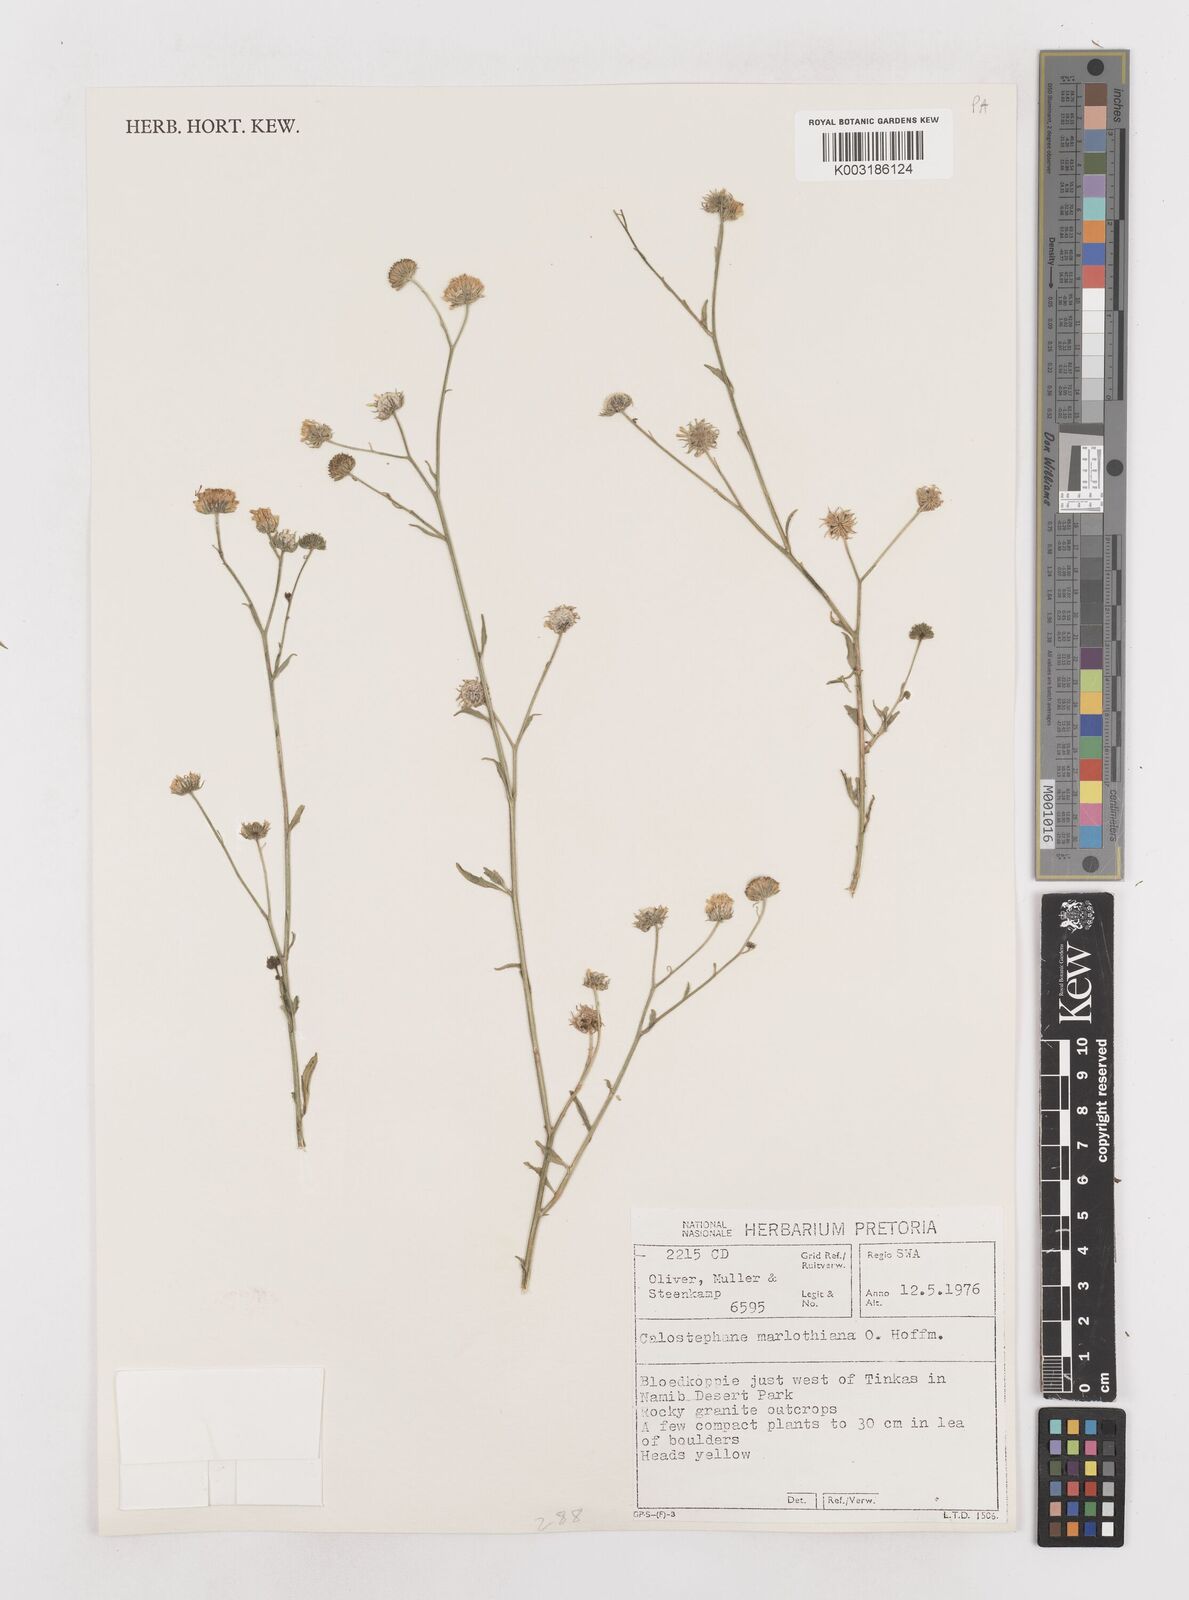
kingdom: Plantae
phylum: Tracheophyta
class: Magnoliopsida
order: Asterales
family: Asteraceae
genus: Calostephane
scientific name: Calostephane marlothiana
